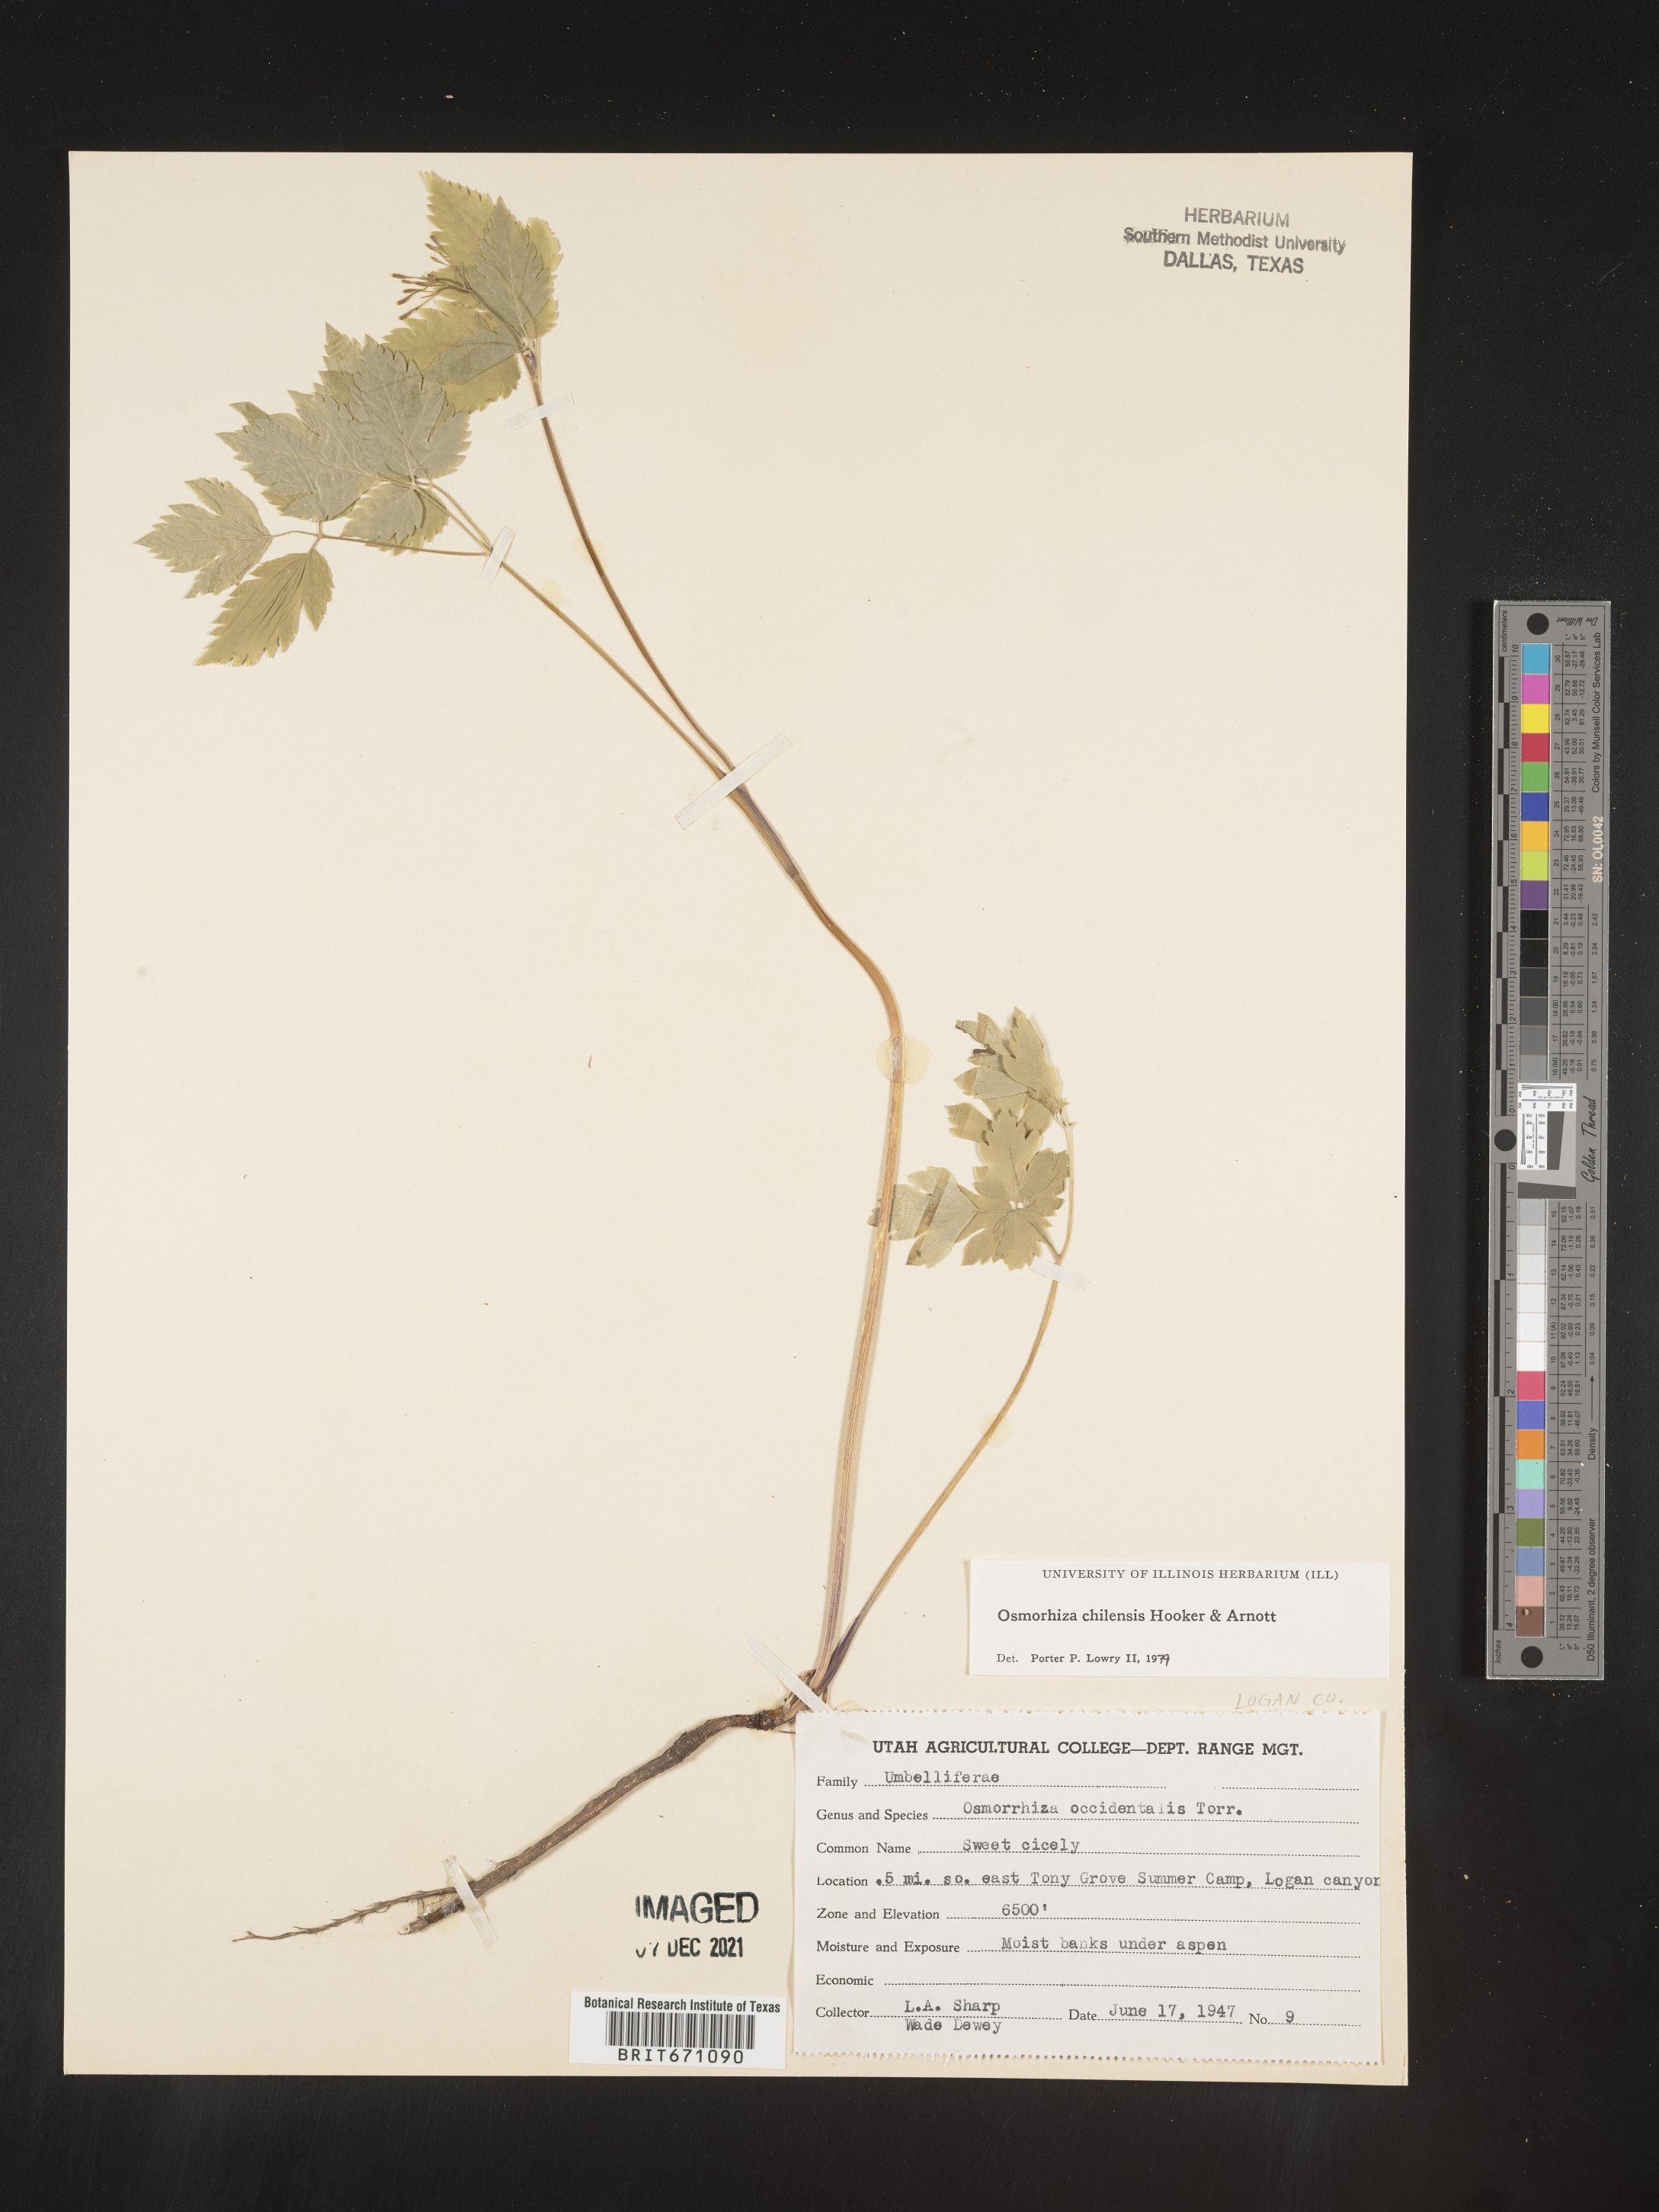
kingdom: Plantae
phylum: Tracheophyta
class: Magnoliopsida
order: Apiales
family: Apiaceae
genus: Osmorhiza
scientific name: Osmorhiza berteroi
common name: Mountain sweet cicely
